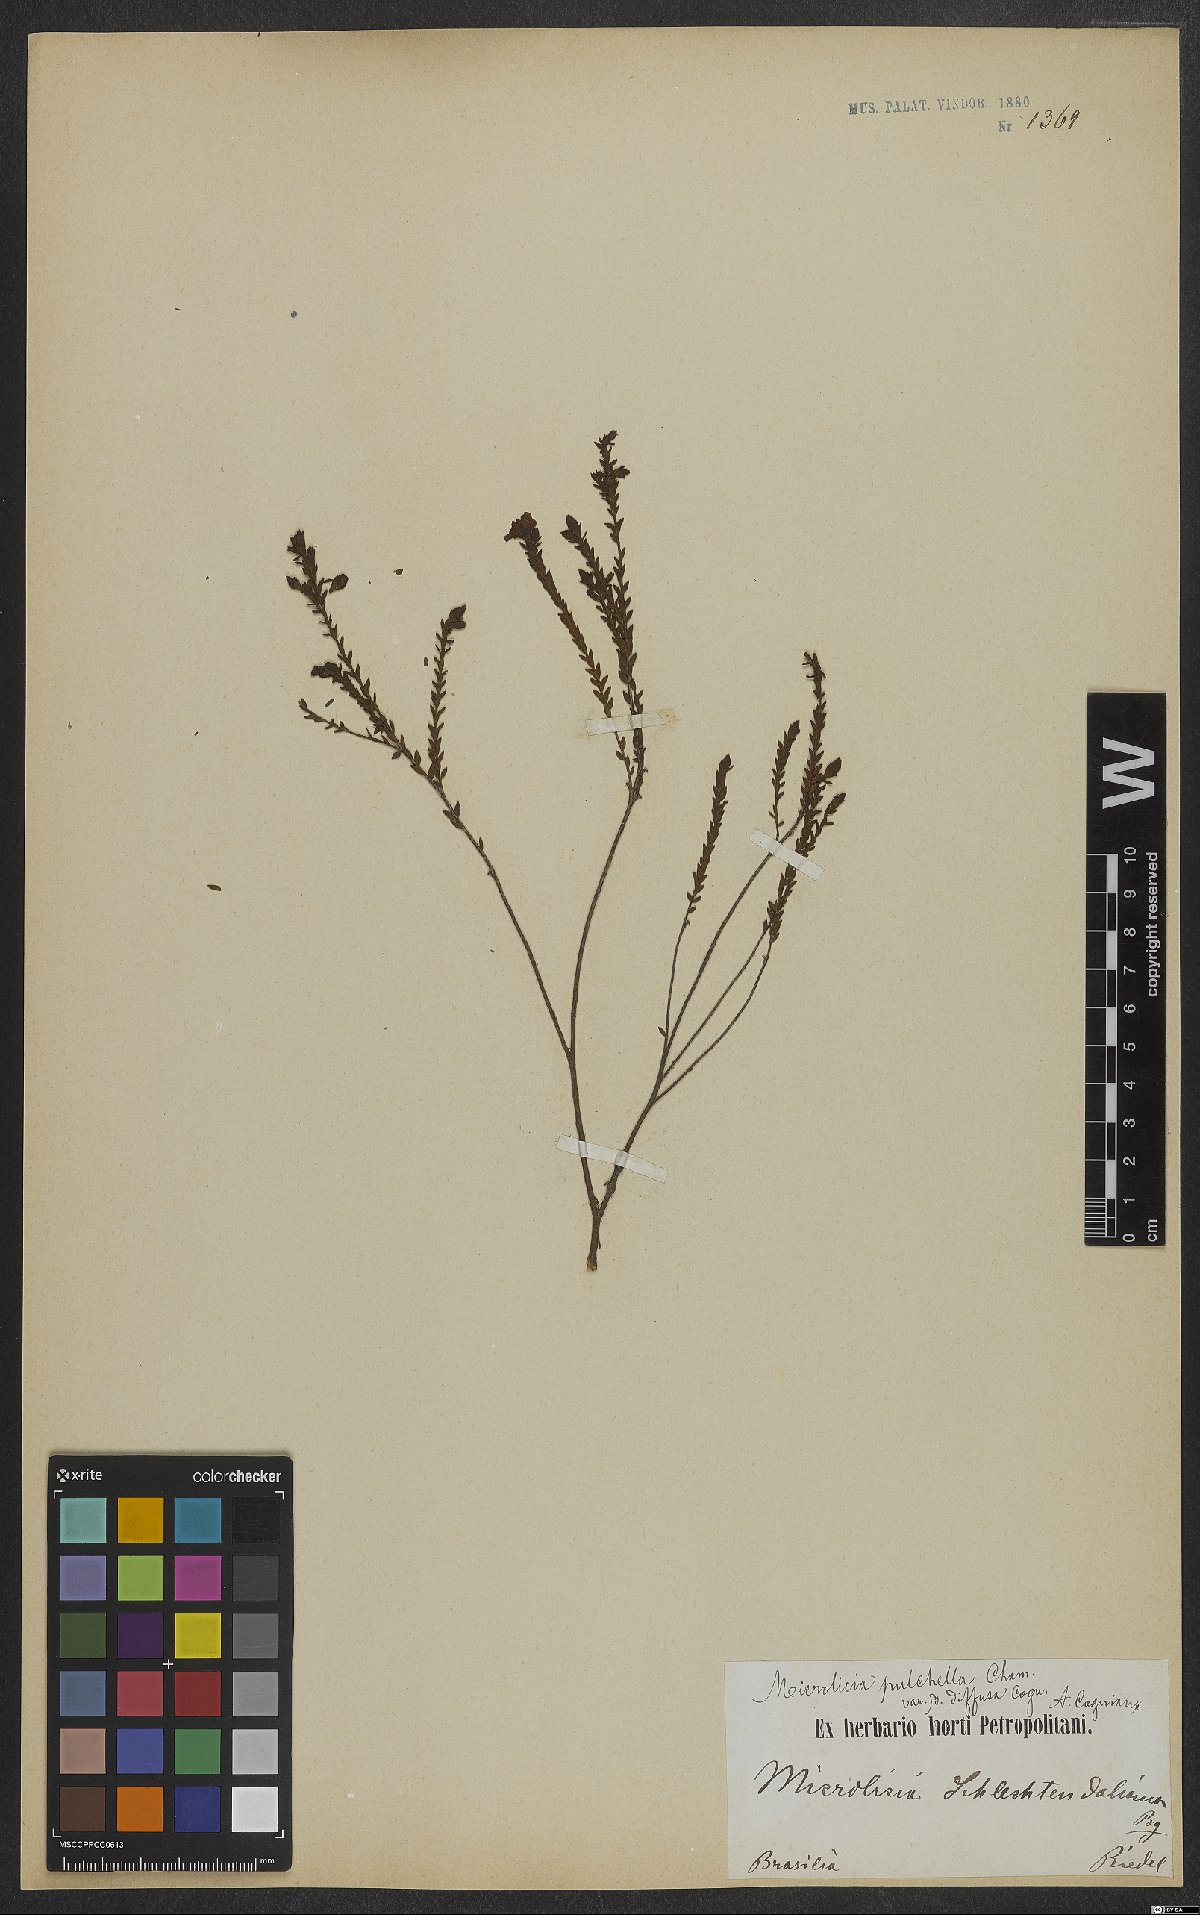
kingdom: Plantae
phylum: Tracheophyta
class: Magnoliopsida
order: Myrtales
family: Melastomataceae
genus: Microlicia
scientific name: Microlicia isophylla
